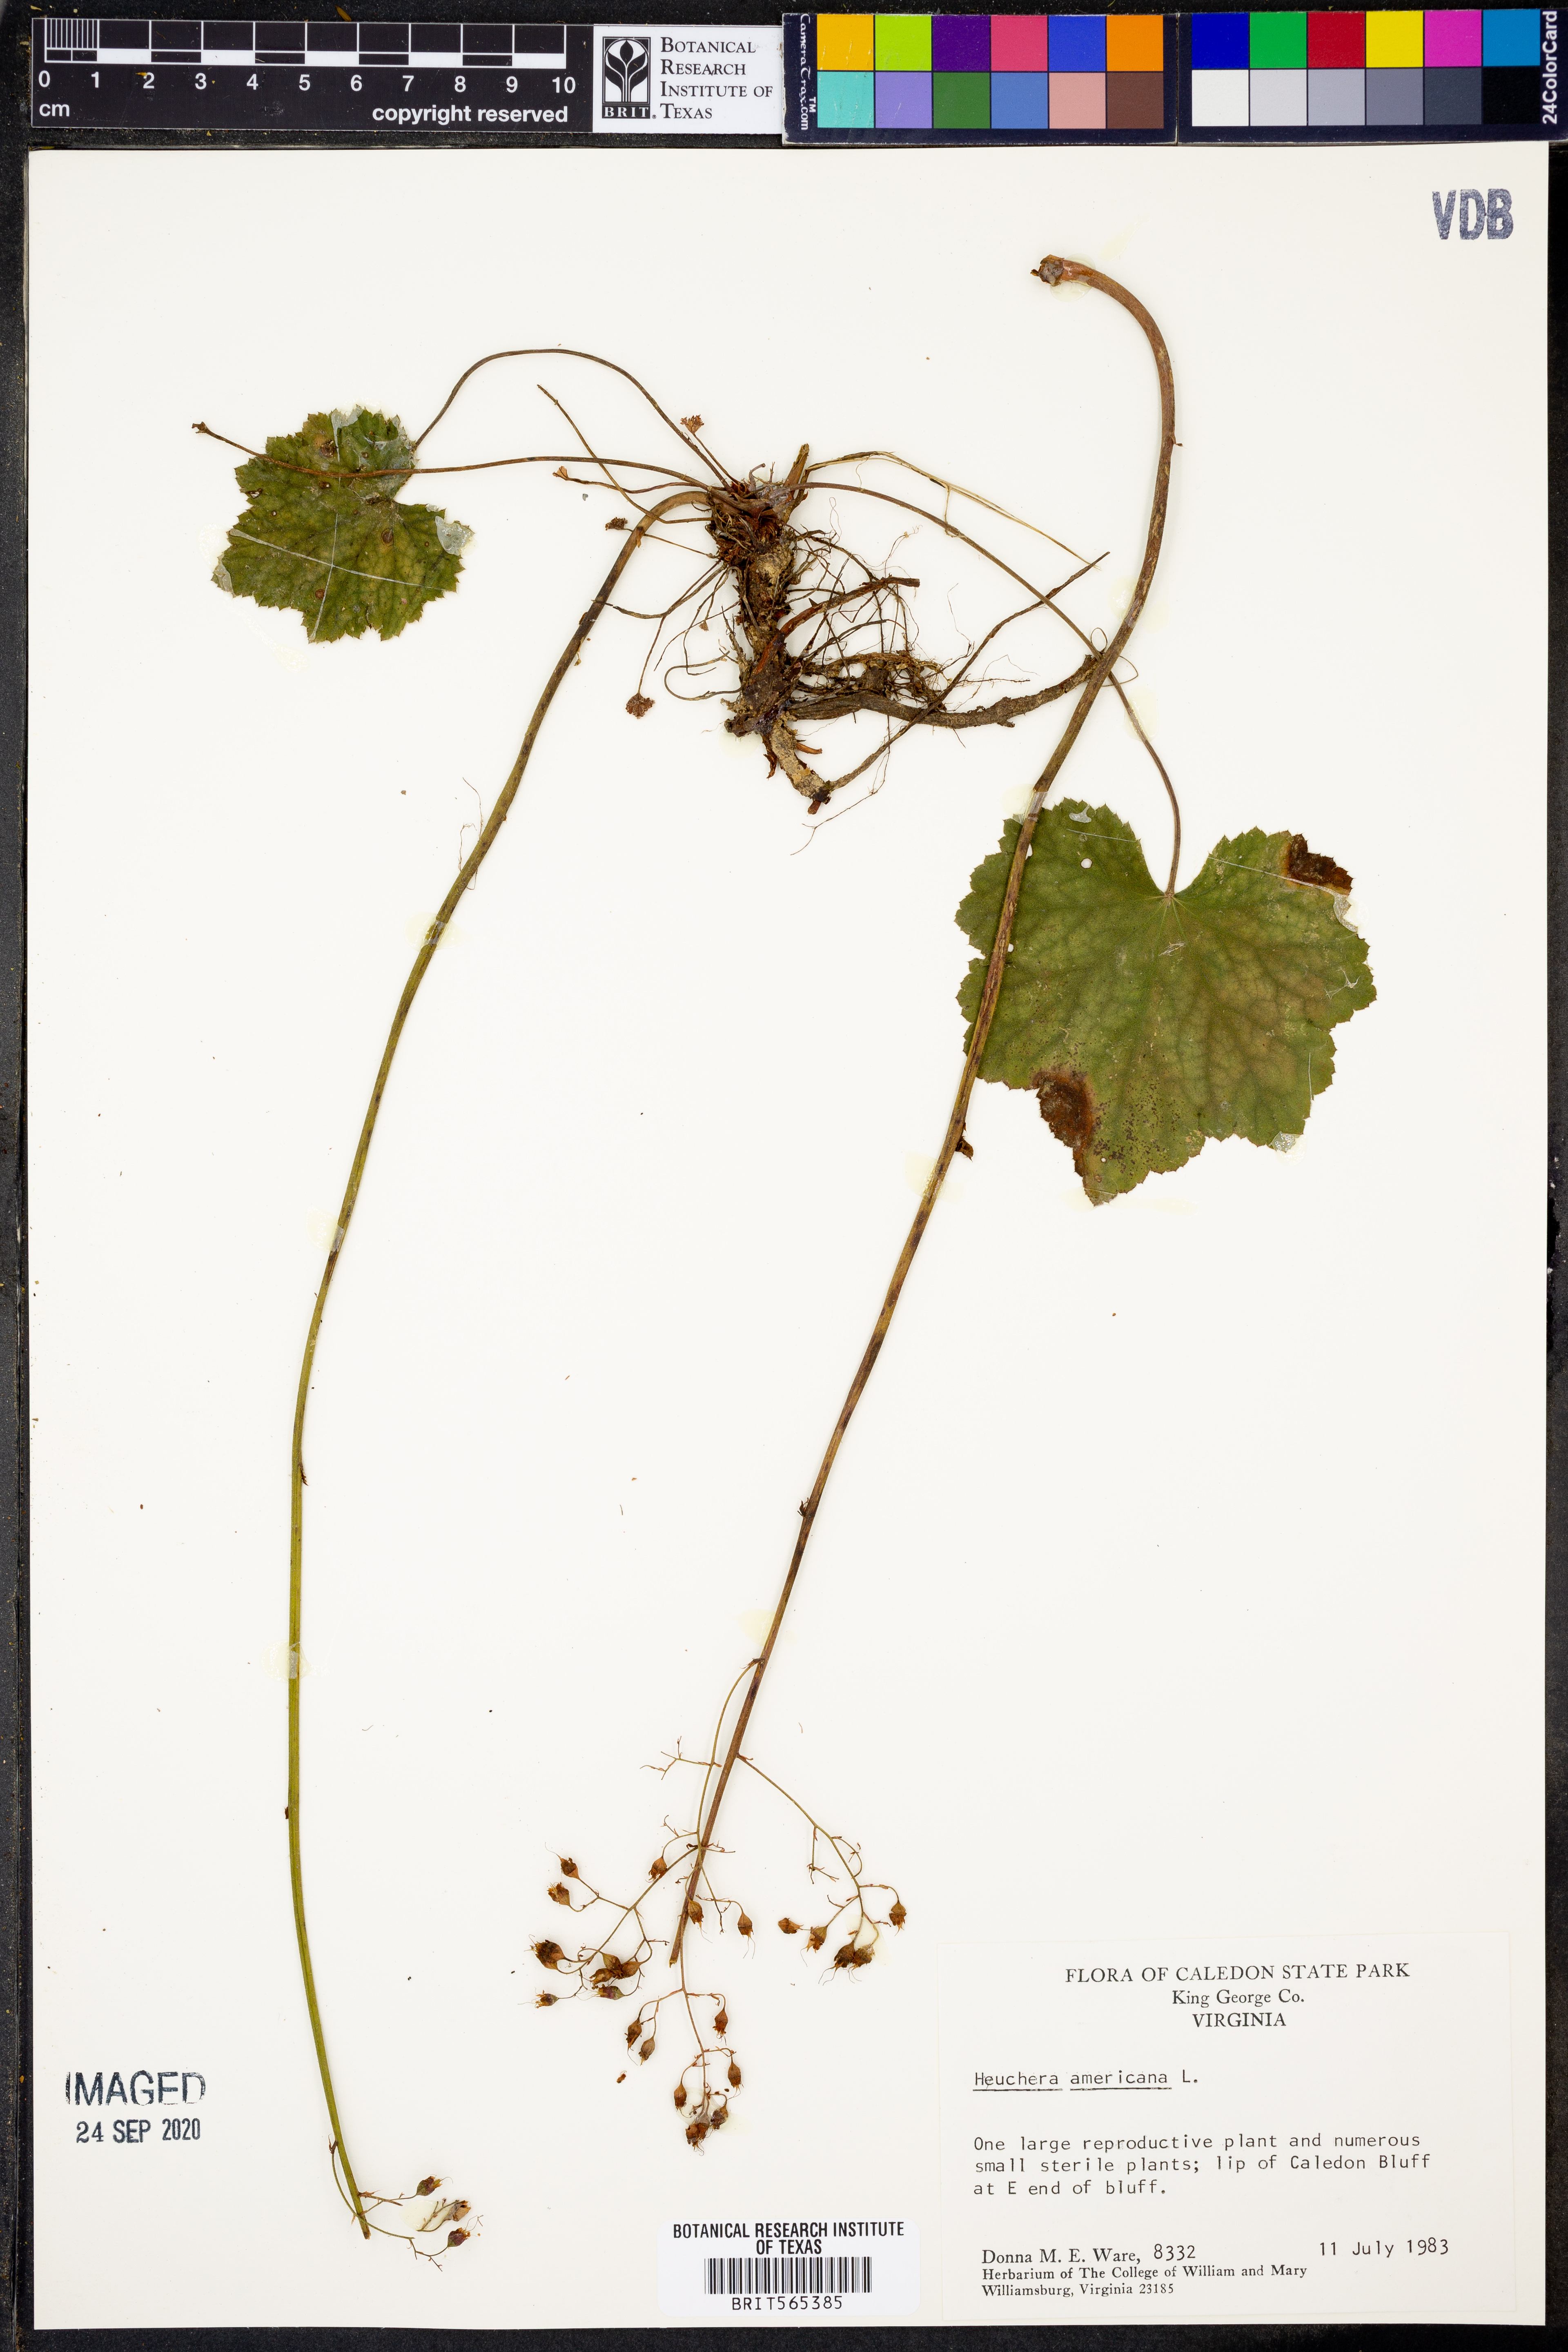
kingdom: Plantae
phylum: Tracheophyta
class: Magnoliopsida
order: Saxifragales
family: Saxifragaceae
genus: Heuchera
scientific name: Heuchera americana
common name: Alumroot
